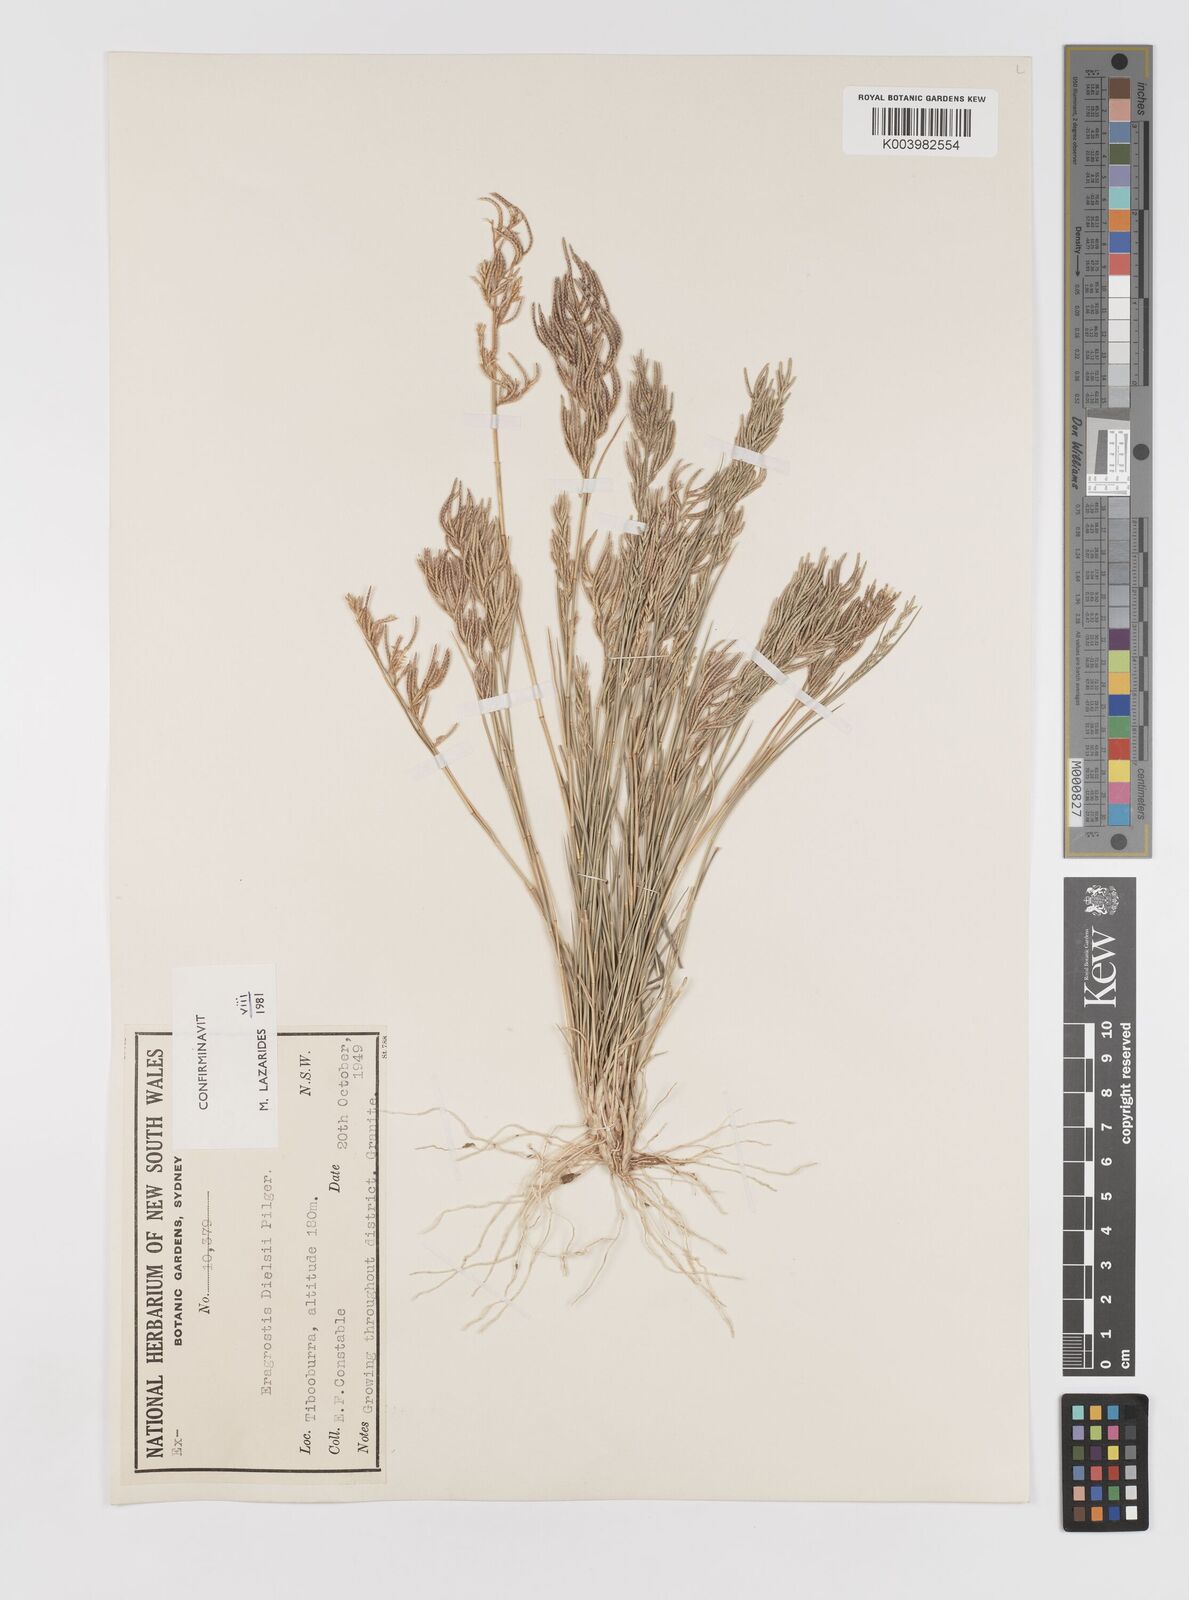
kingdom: Plantae
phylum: Tracheophyta
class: Liliopsida
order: Poales
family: Poaceae
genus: Eragrostis
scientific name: Eragrostis dielsii
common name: Lovegrass
